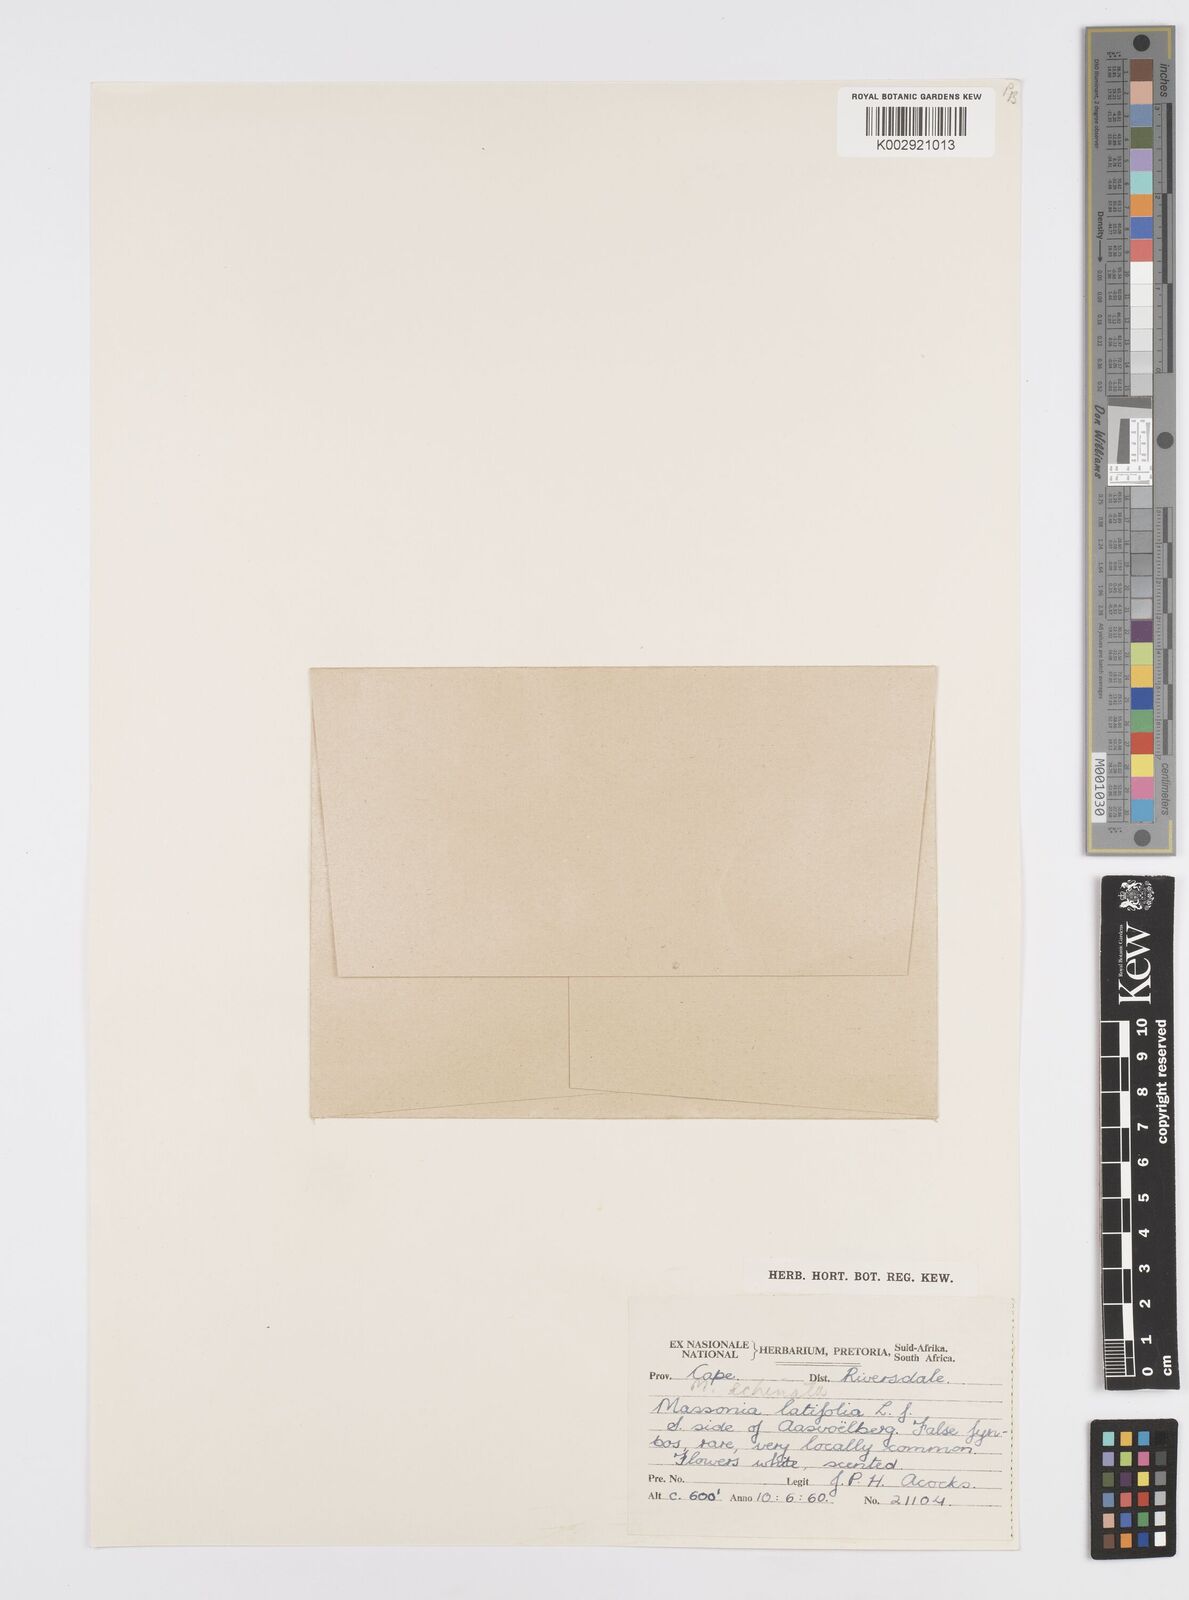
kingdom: Plantae
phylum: Tracheophyta
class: Liliopsida
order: Asparagales
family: Asparagaceae
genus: Massonia
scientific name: Massonia
